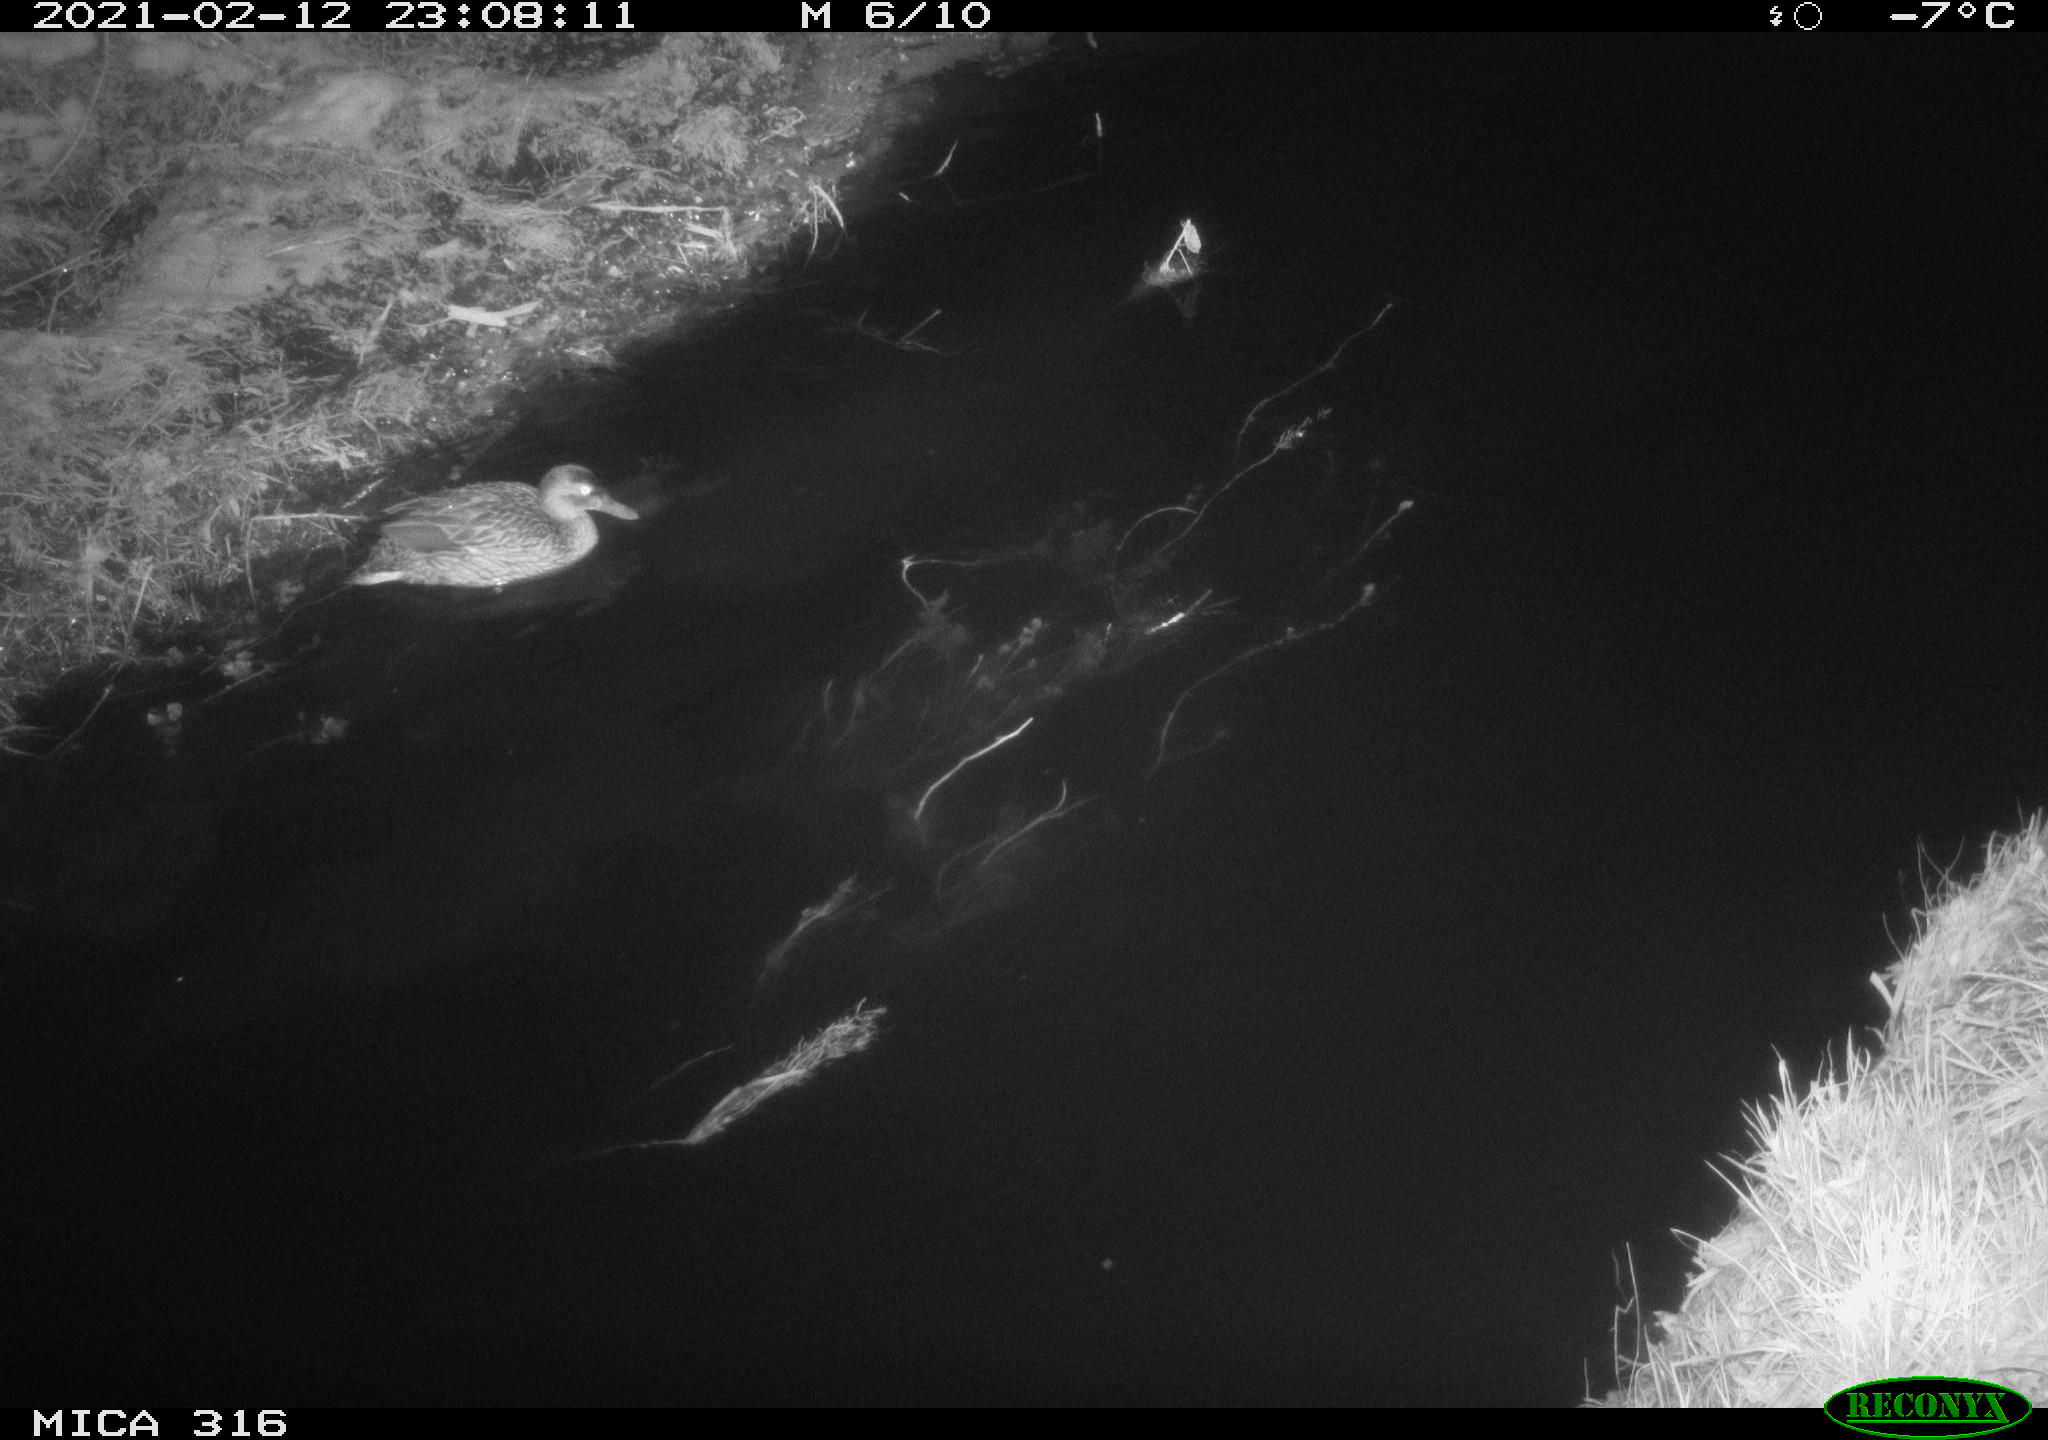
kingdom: Animalia
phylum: Chordata
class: Aves
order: Anseriformes
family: Anatidae
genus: Anas
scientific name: Anas platyrhynchos
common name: Mallard
